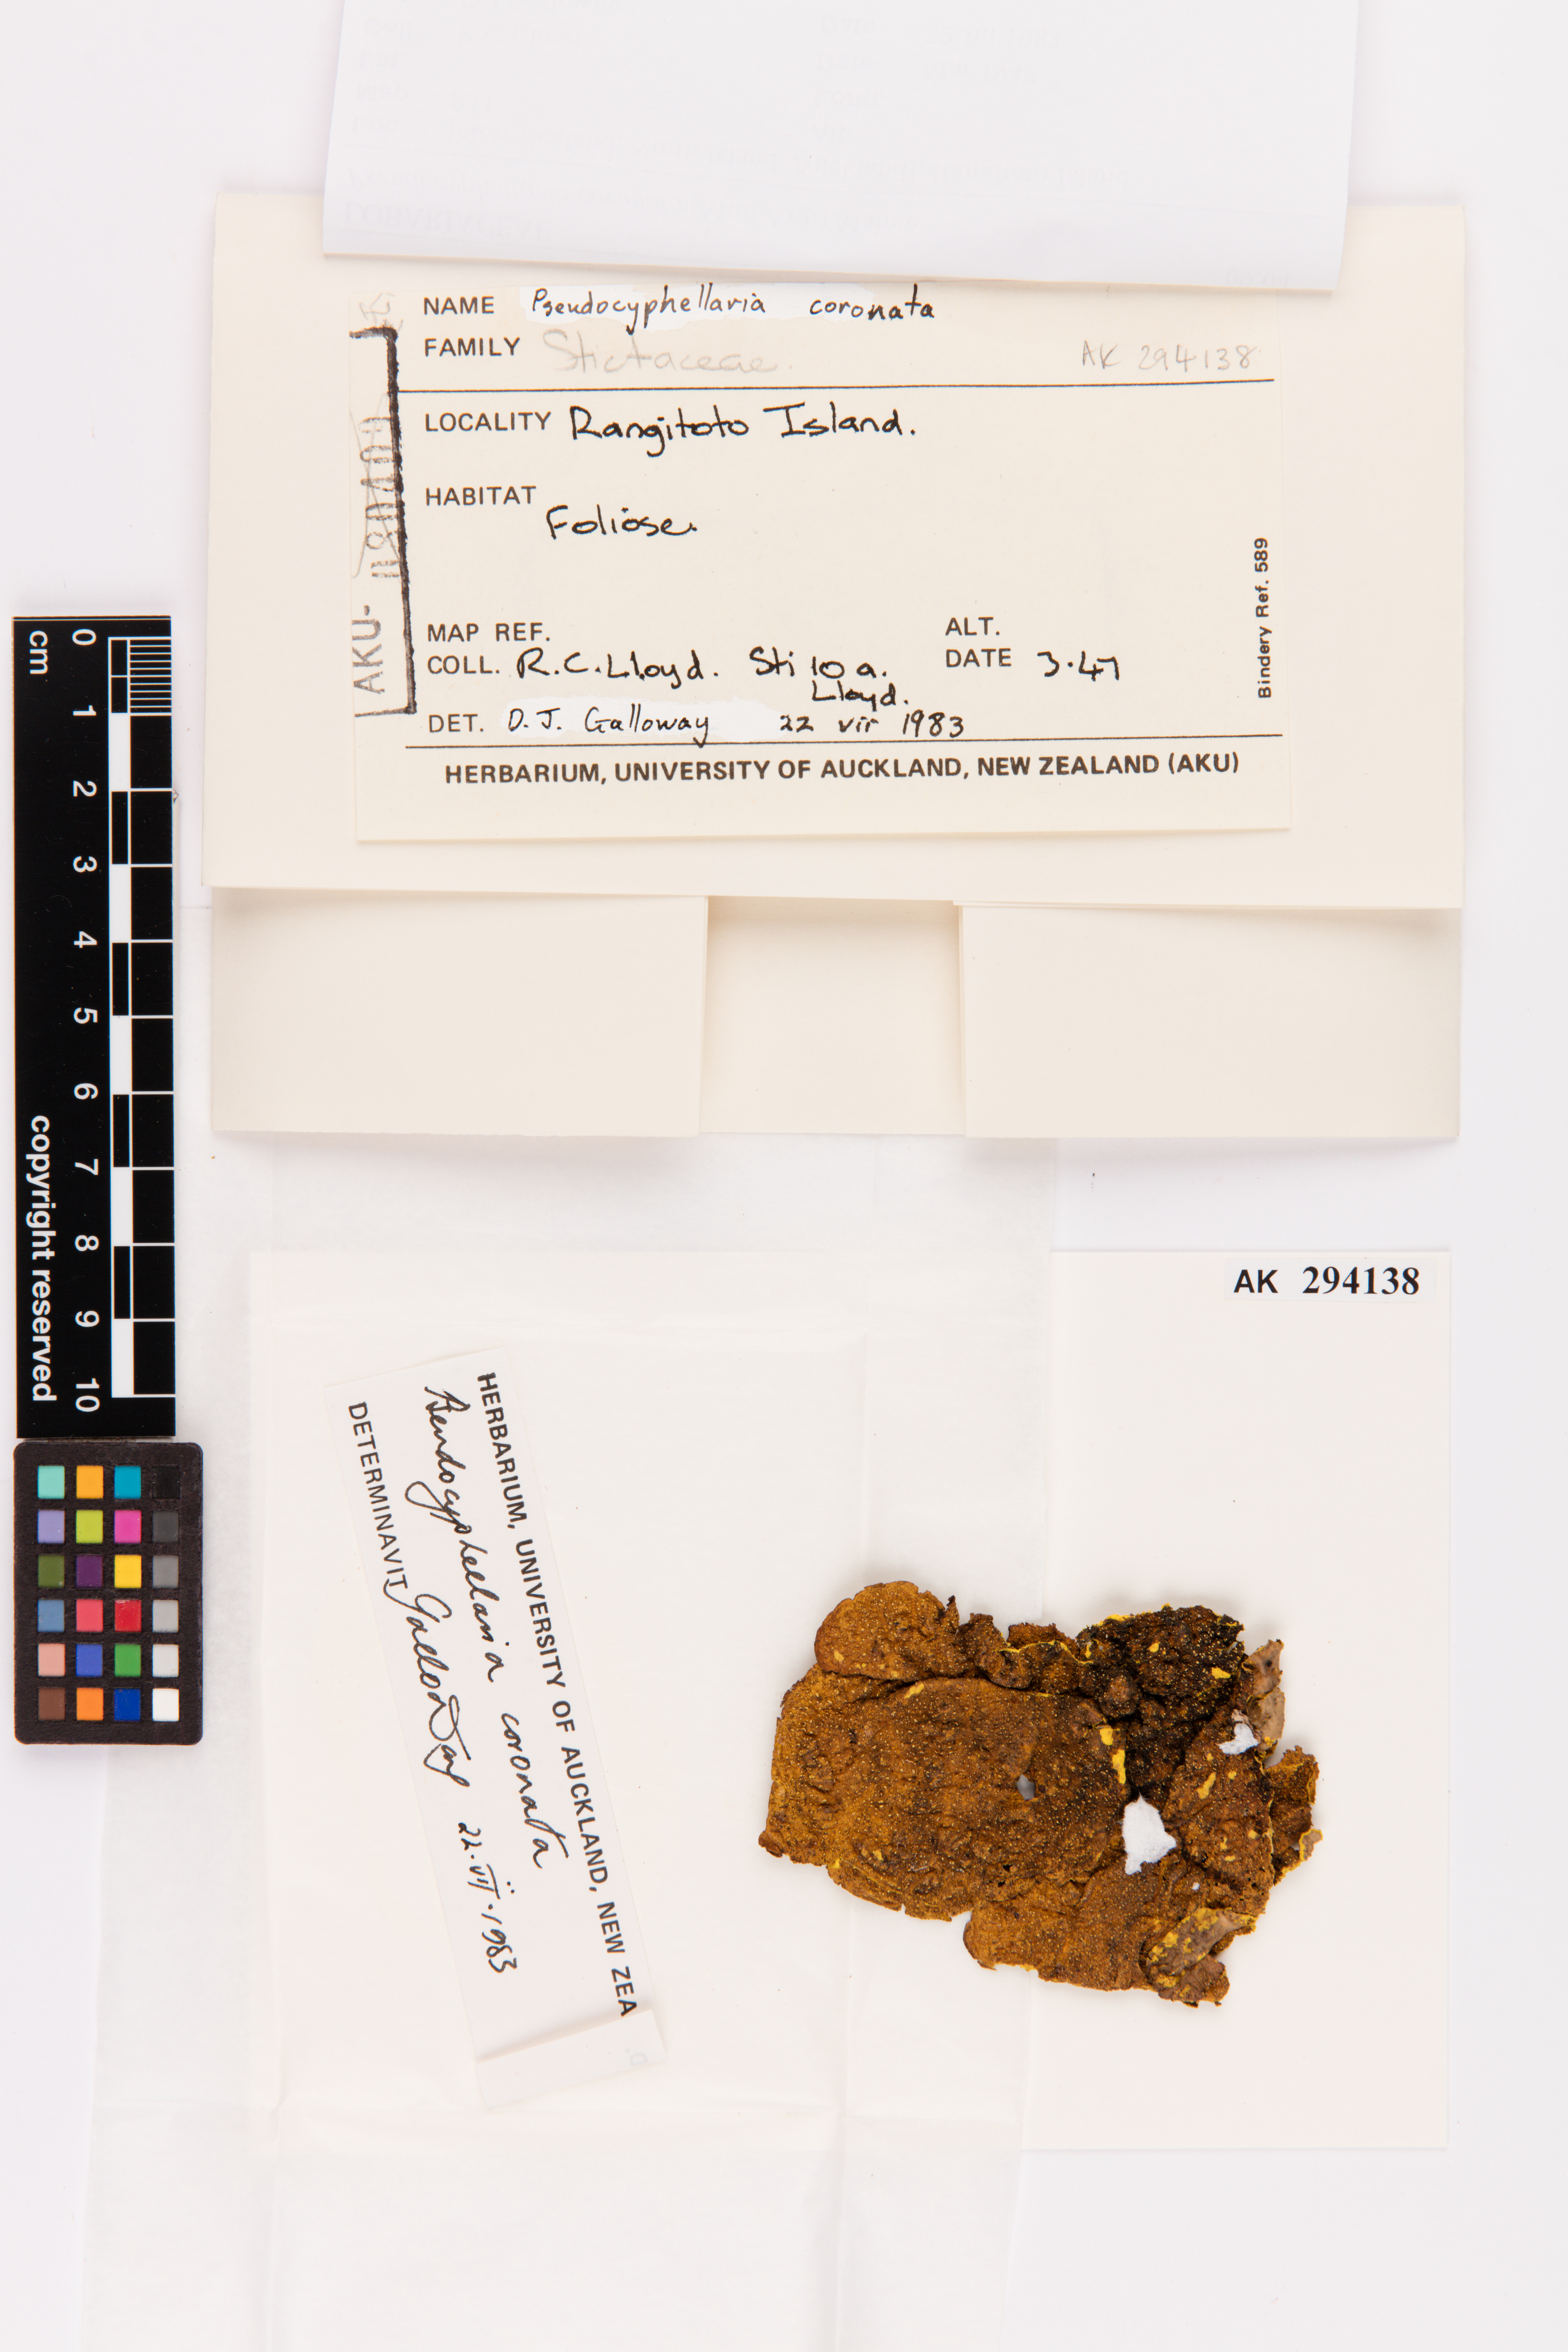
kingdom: Fungi
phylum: Ascomycota
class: Lecanoromycetes
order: Peltigerales
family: Lobariaceae
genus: Yarrumia
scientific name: Yarrumia coronata
